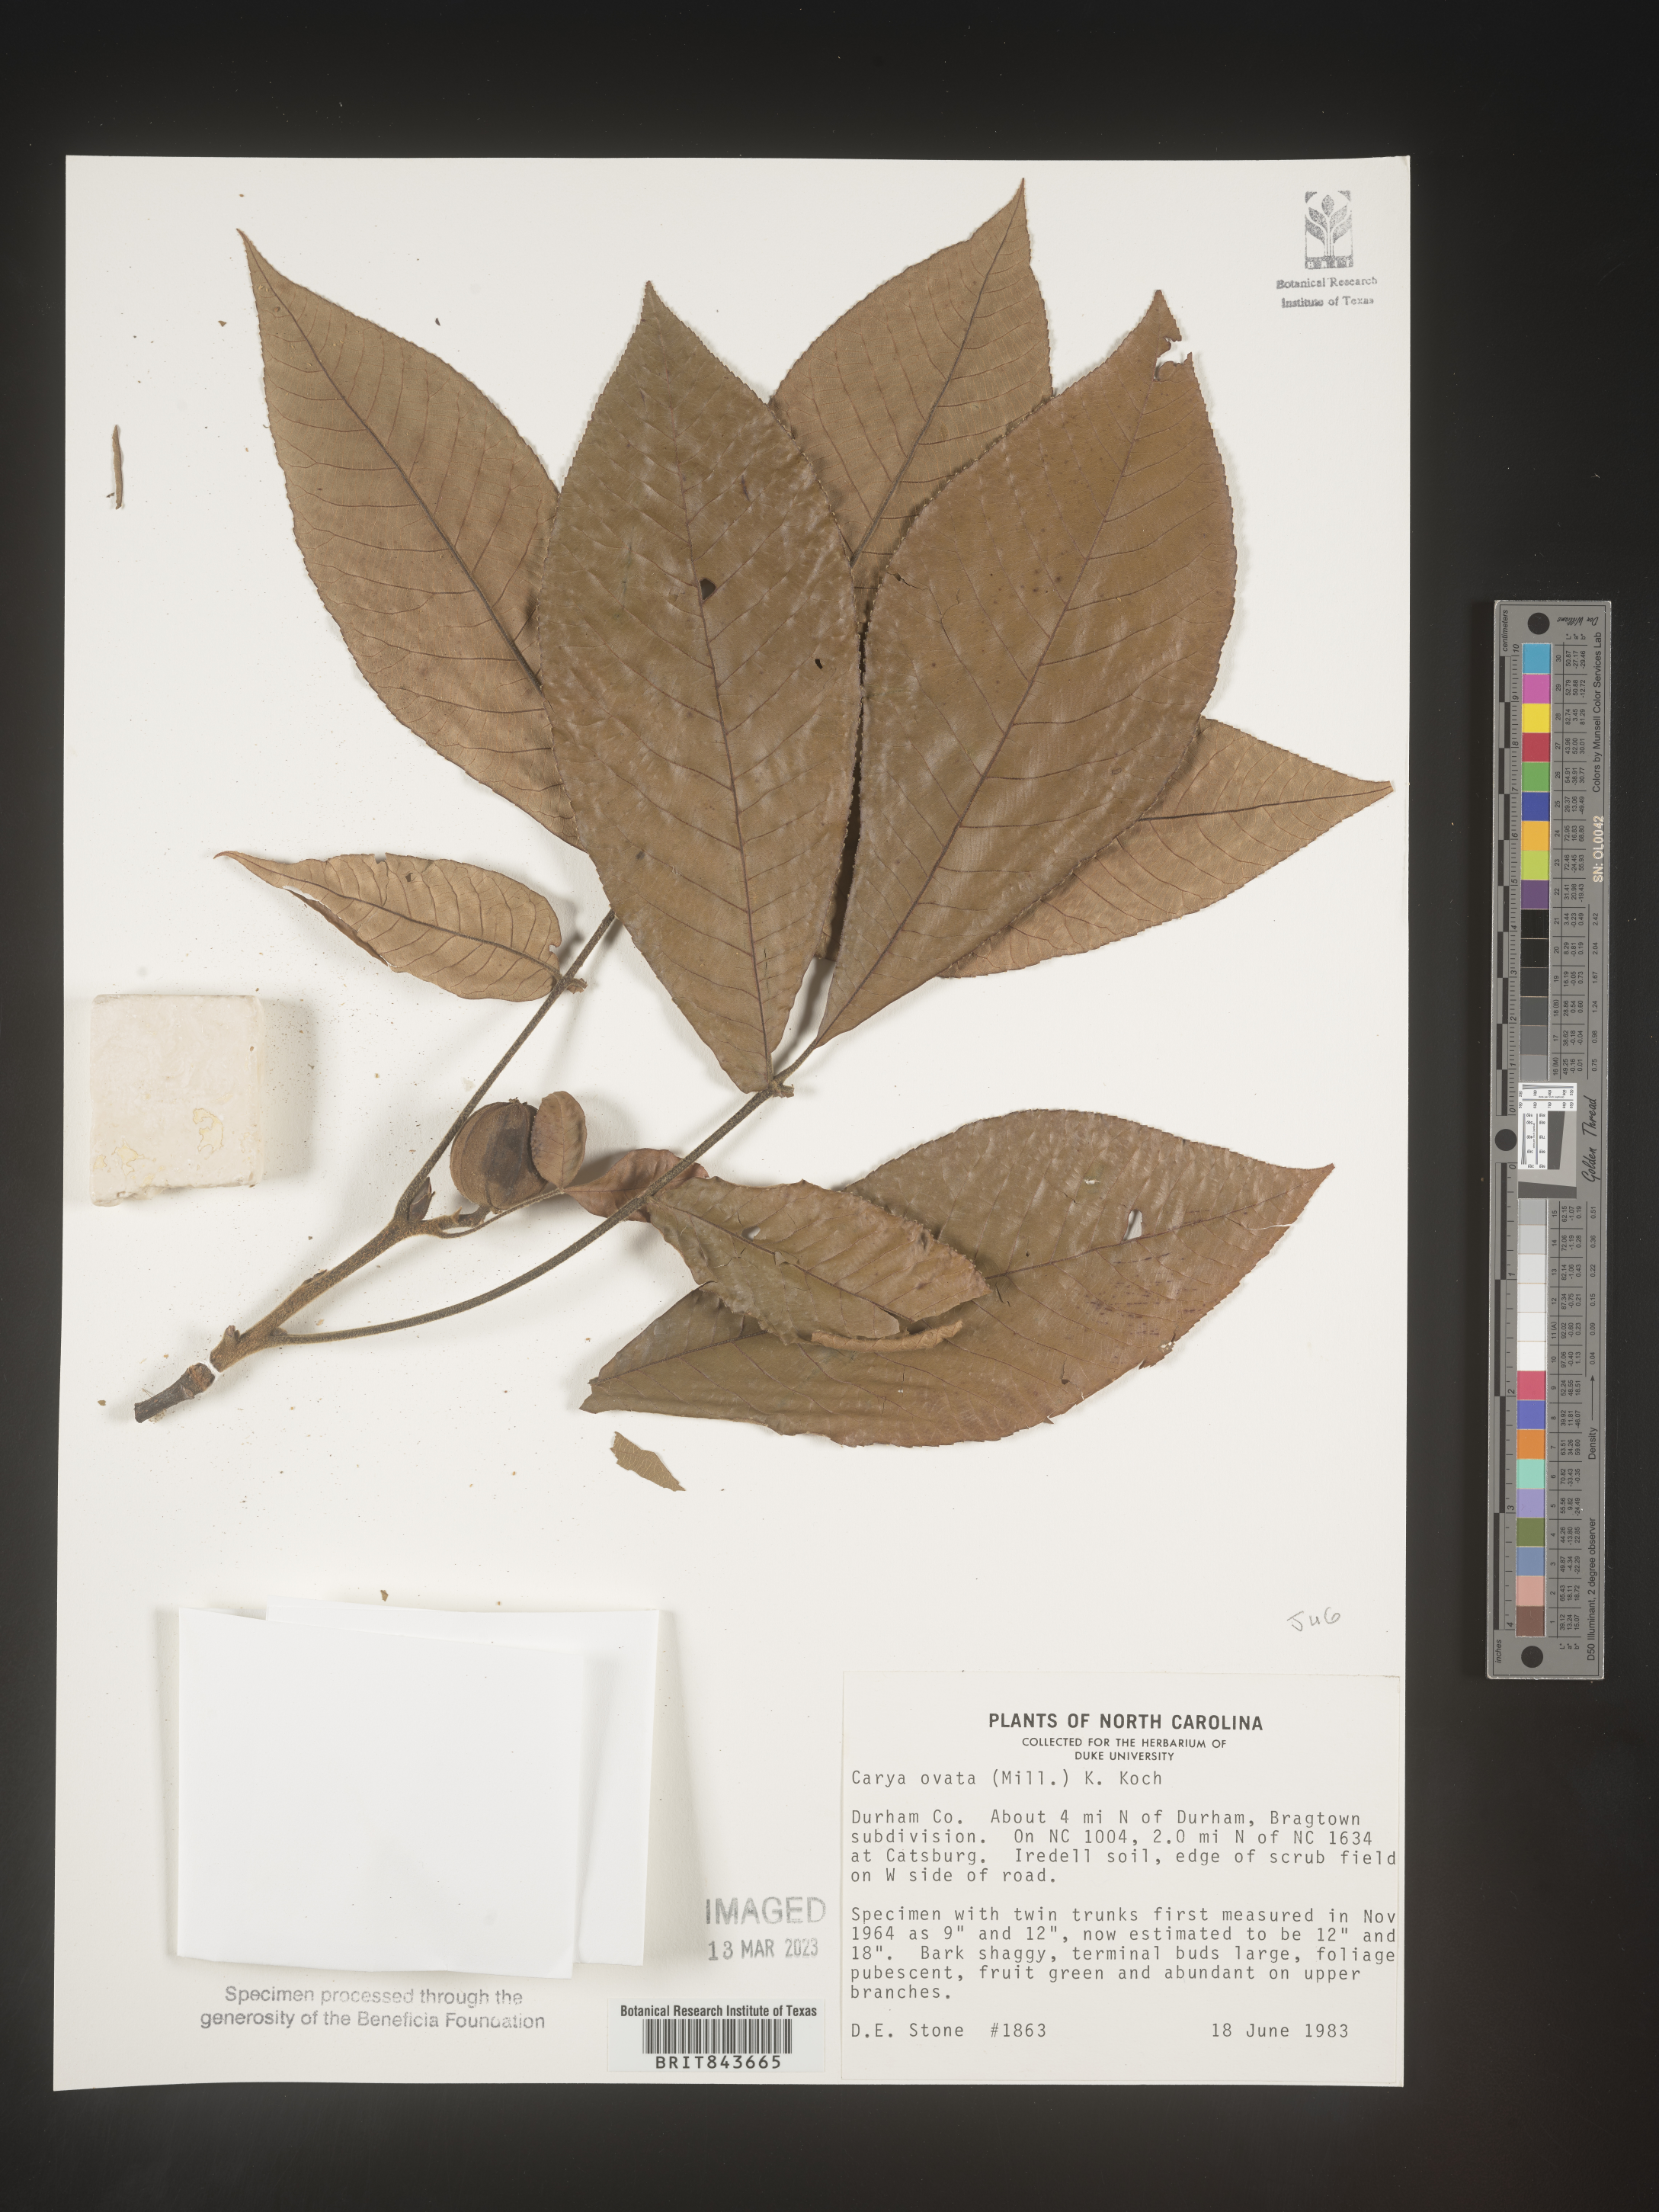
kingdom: Plantae
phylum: Tracheophyta
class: Magnoliopsida
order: Fagales
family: Juglandaceae
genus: Carya
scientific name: Carya ovata
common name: Shagbark hickory
